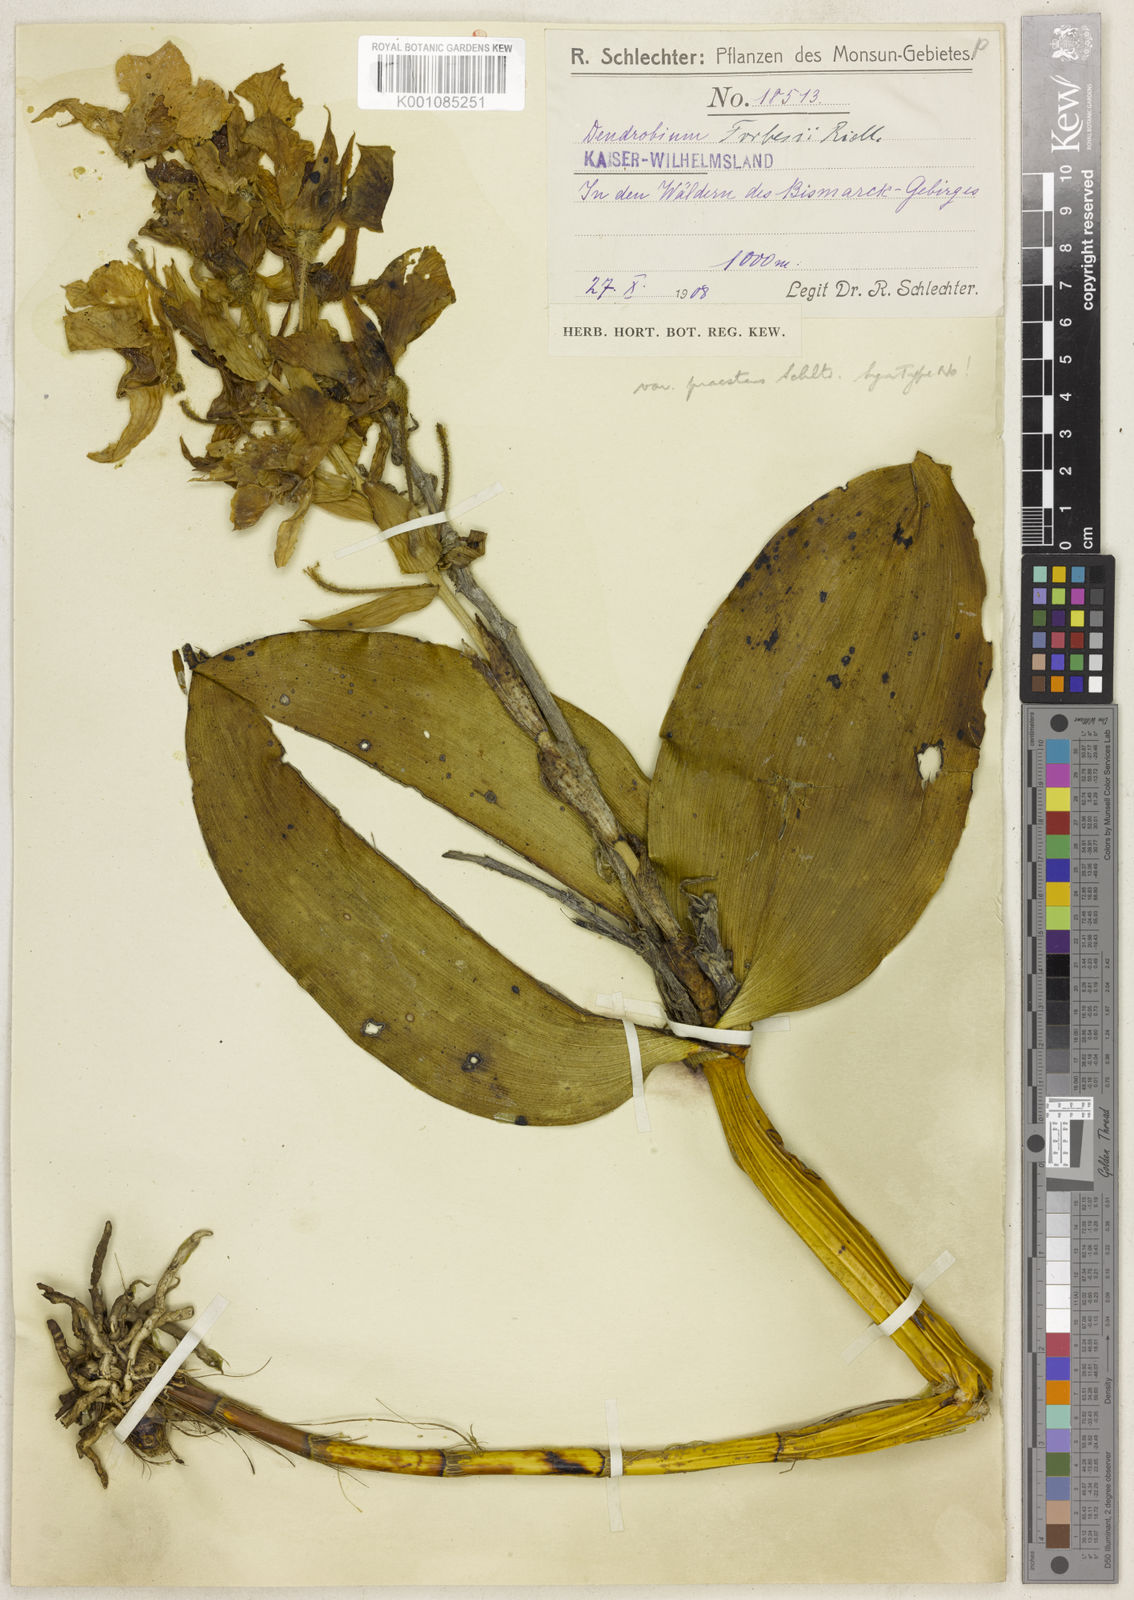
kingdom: Plantae
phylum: Tracheophyta
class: Liliopsida
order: Asparagales
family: Orchidaceae
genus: Dendrobium
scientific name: Dendrobium forbesii
